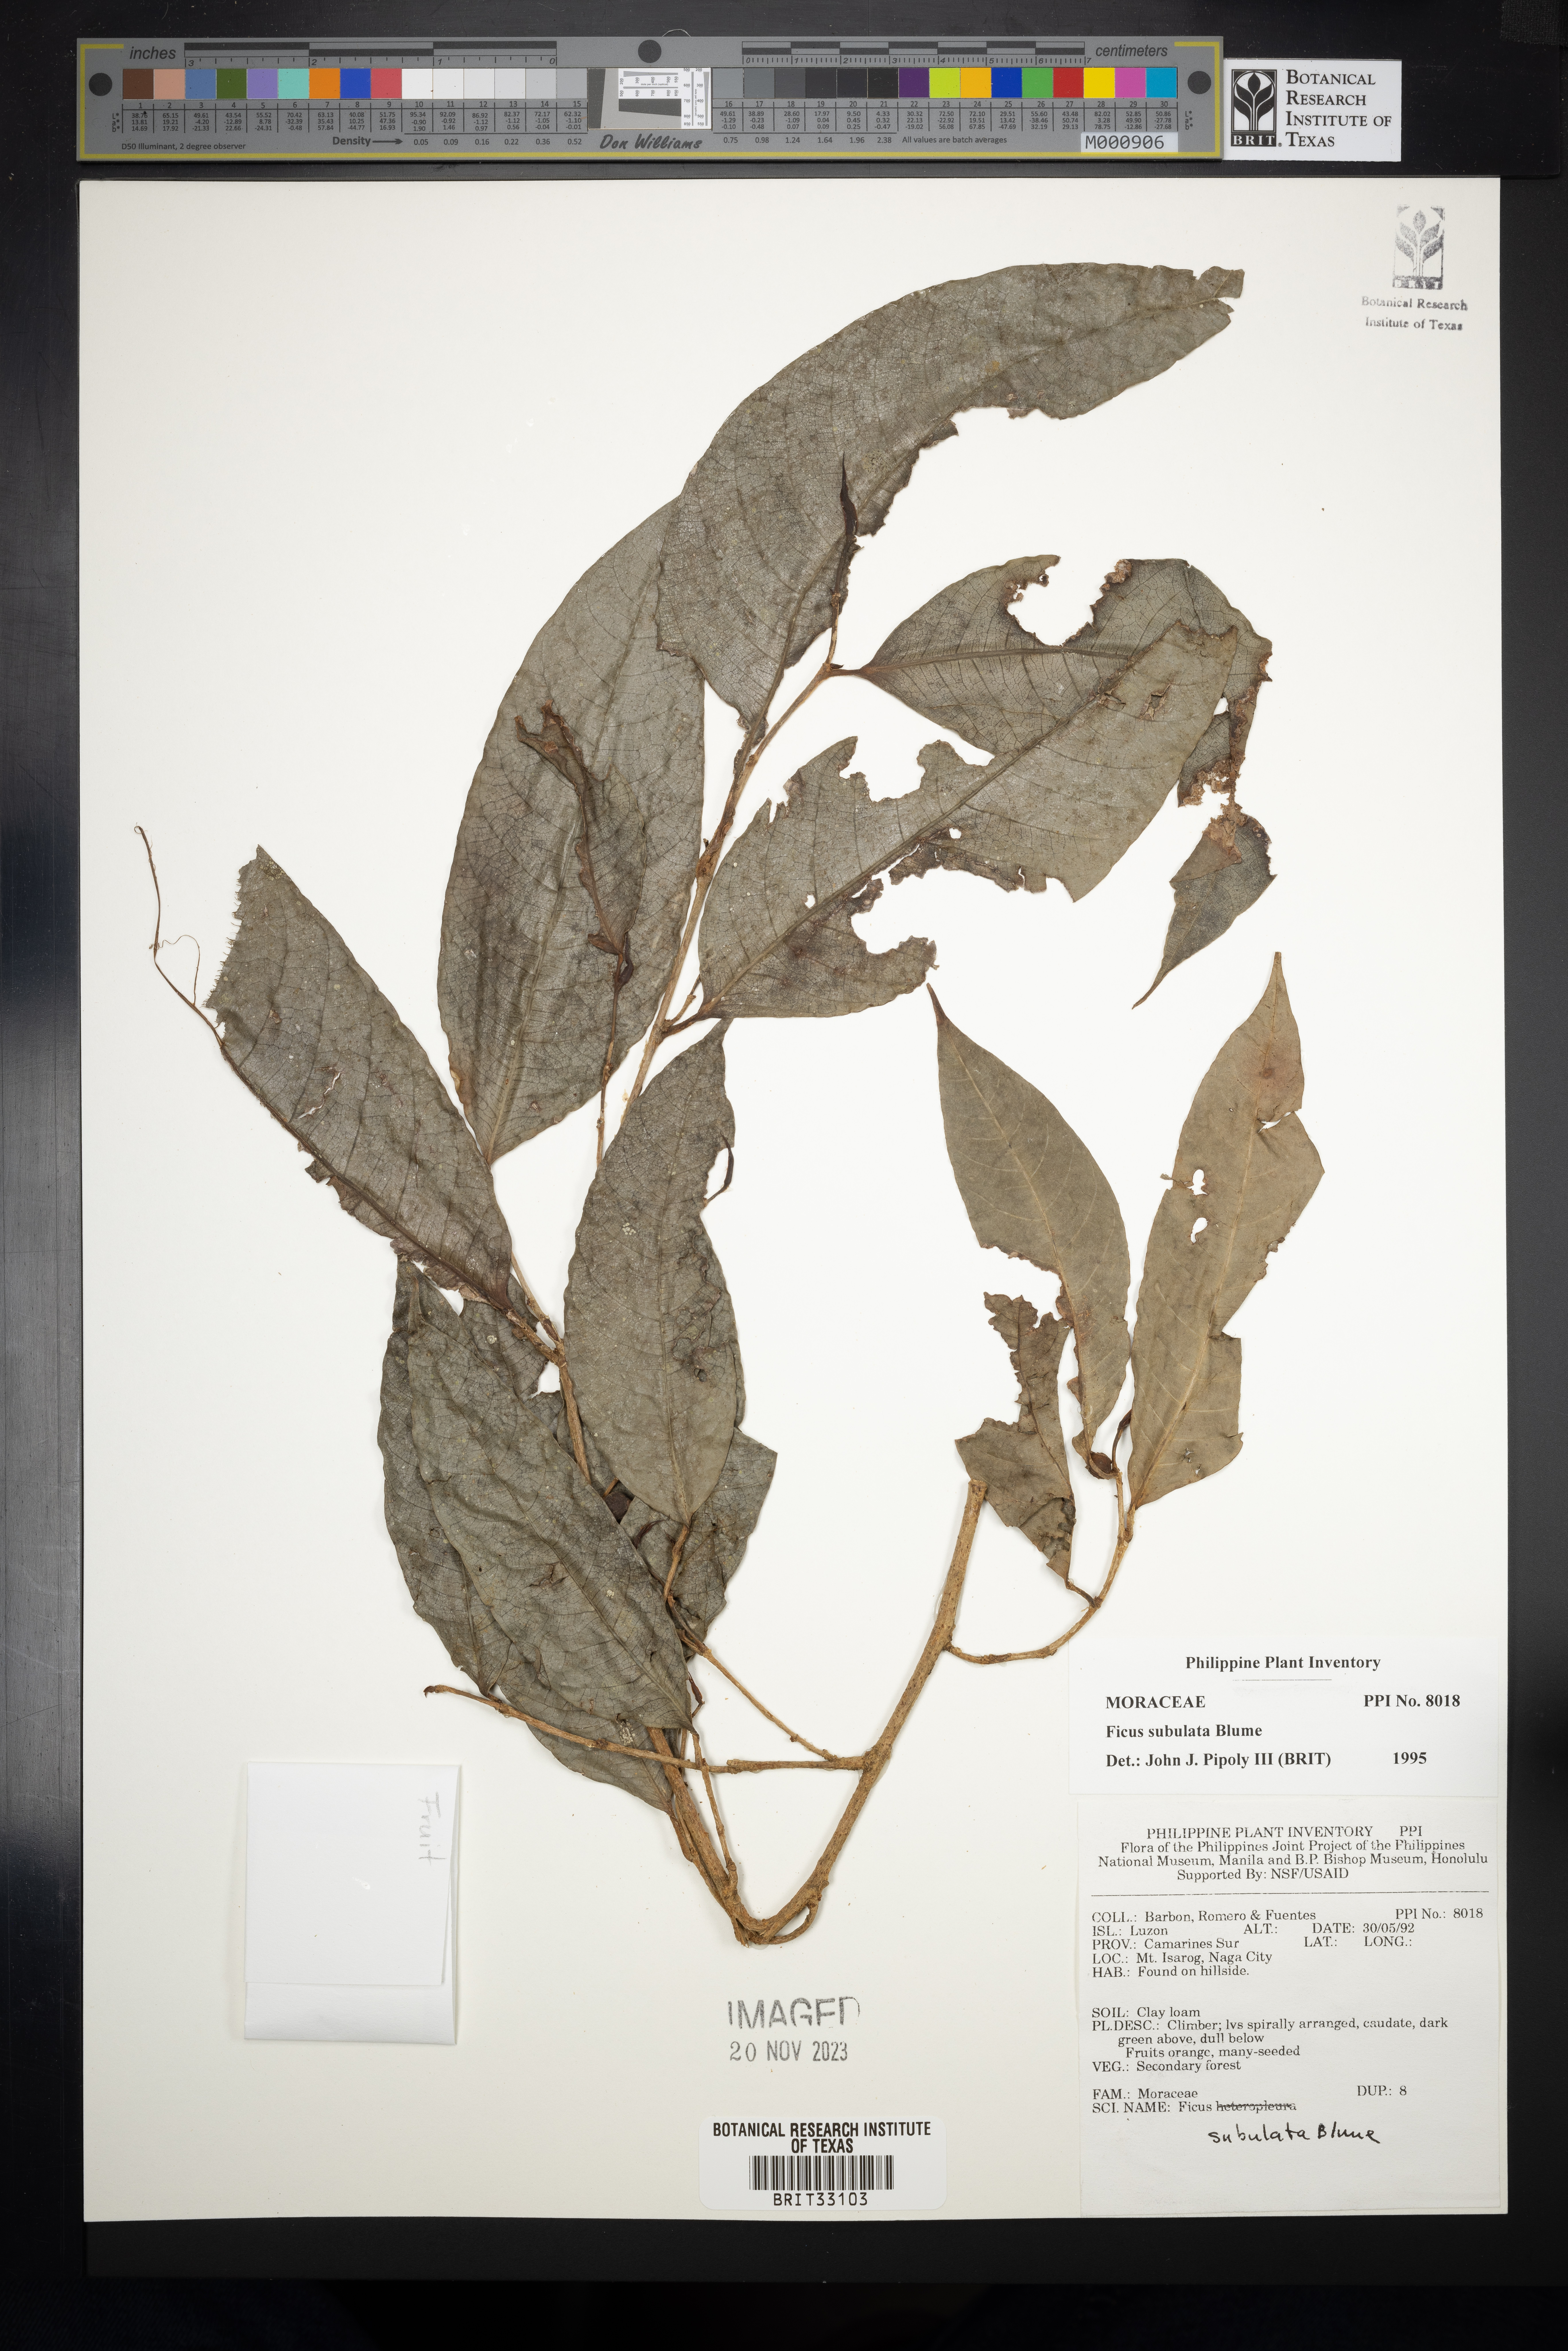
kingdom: Plantae
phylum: Tracheophyta
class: Magnoliopsida
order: Rosales
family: Moraceae
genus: Ficus
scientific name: Ficus subulata
